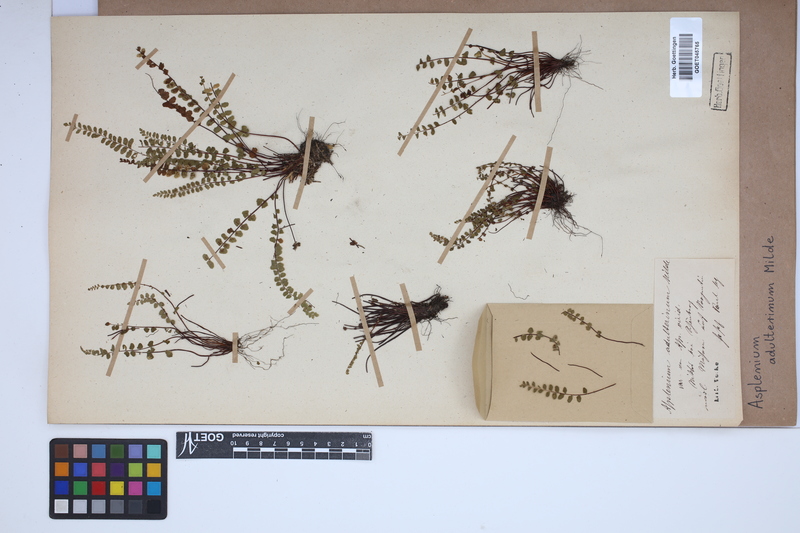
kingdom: Plantae
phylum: Tracheophyta
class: Polypodiopsida
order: Polypodiales
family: Aspleniaceae
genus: Asplenium
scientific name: Asplenium adulterinum
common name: Adulterated spleenwort
